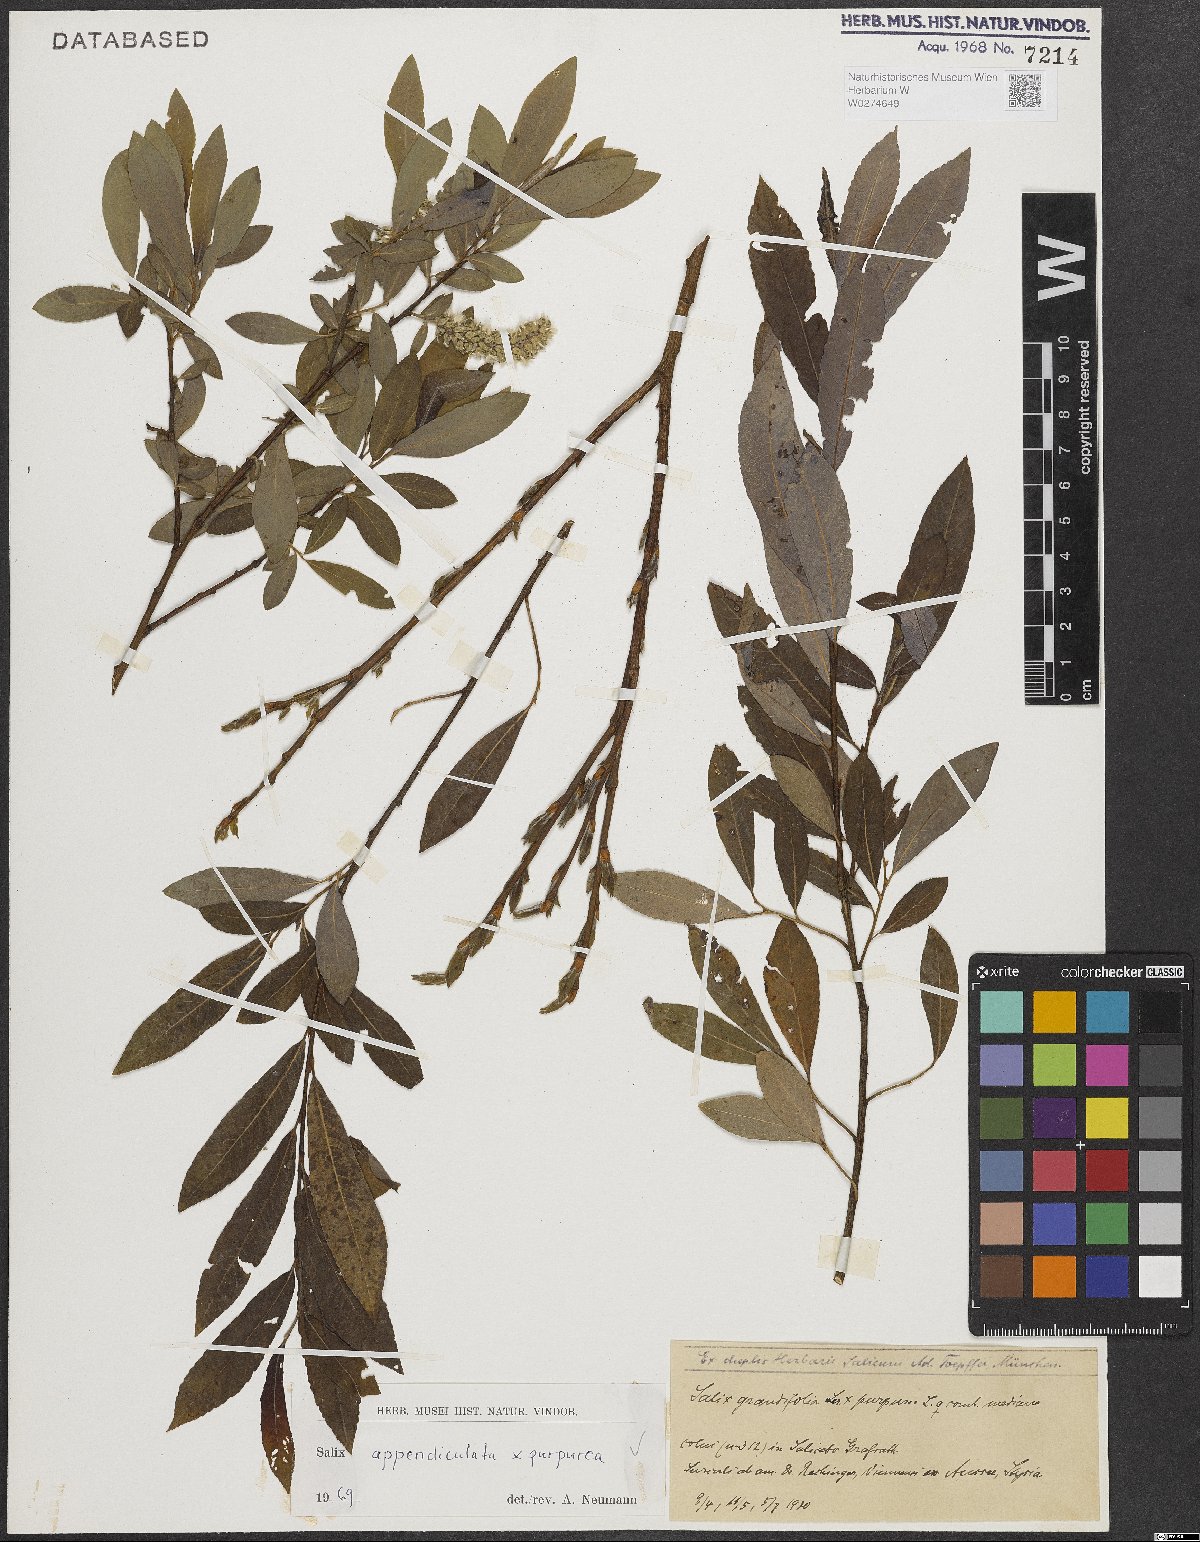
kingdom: Plantae
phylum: Tracheophyta
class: Magnoliopsida
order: Malpighiales
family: Salicaceae
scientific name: Salicaceae
